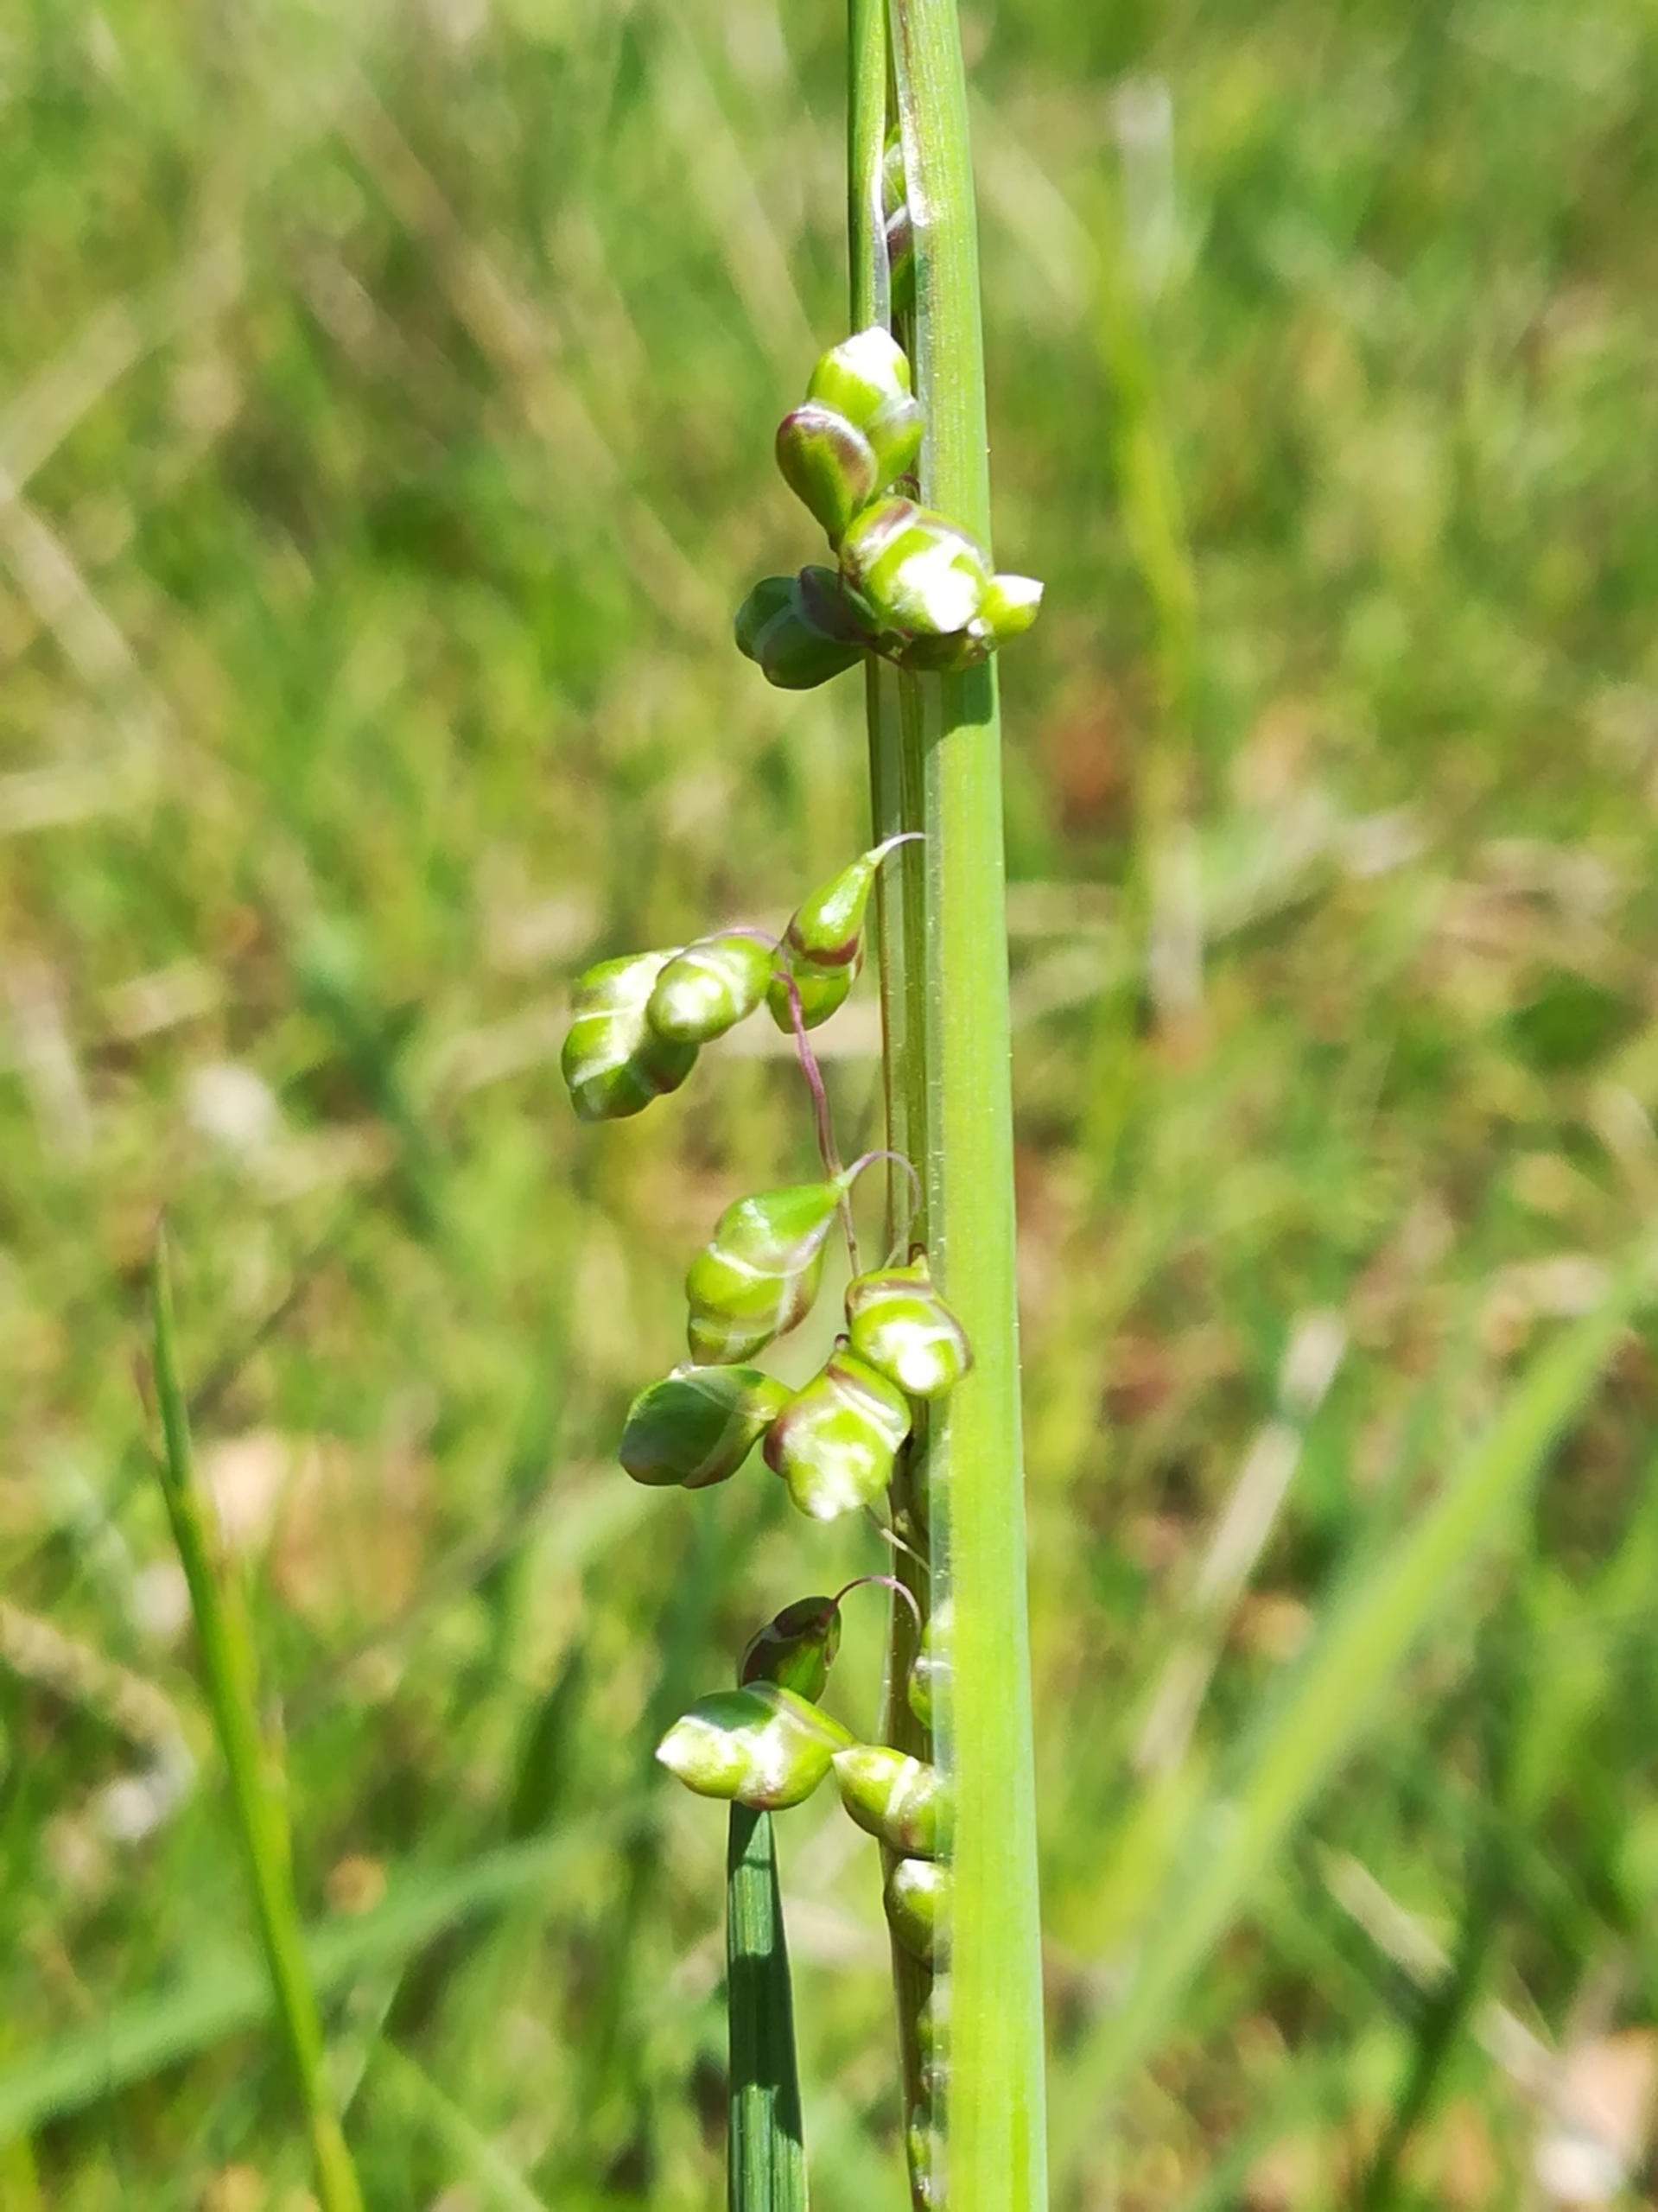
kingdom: Plantae
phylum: Tracheophyta
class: Liliopsida
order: Poales
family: Poaceae
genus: Briza
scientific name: Briza media
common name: Hjertegræs
